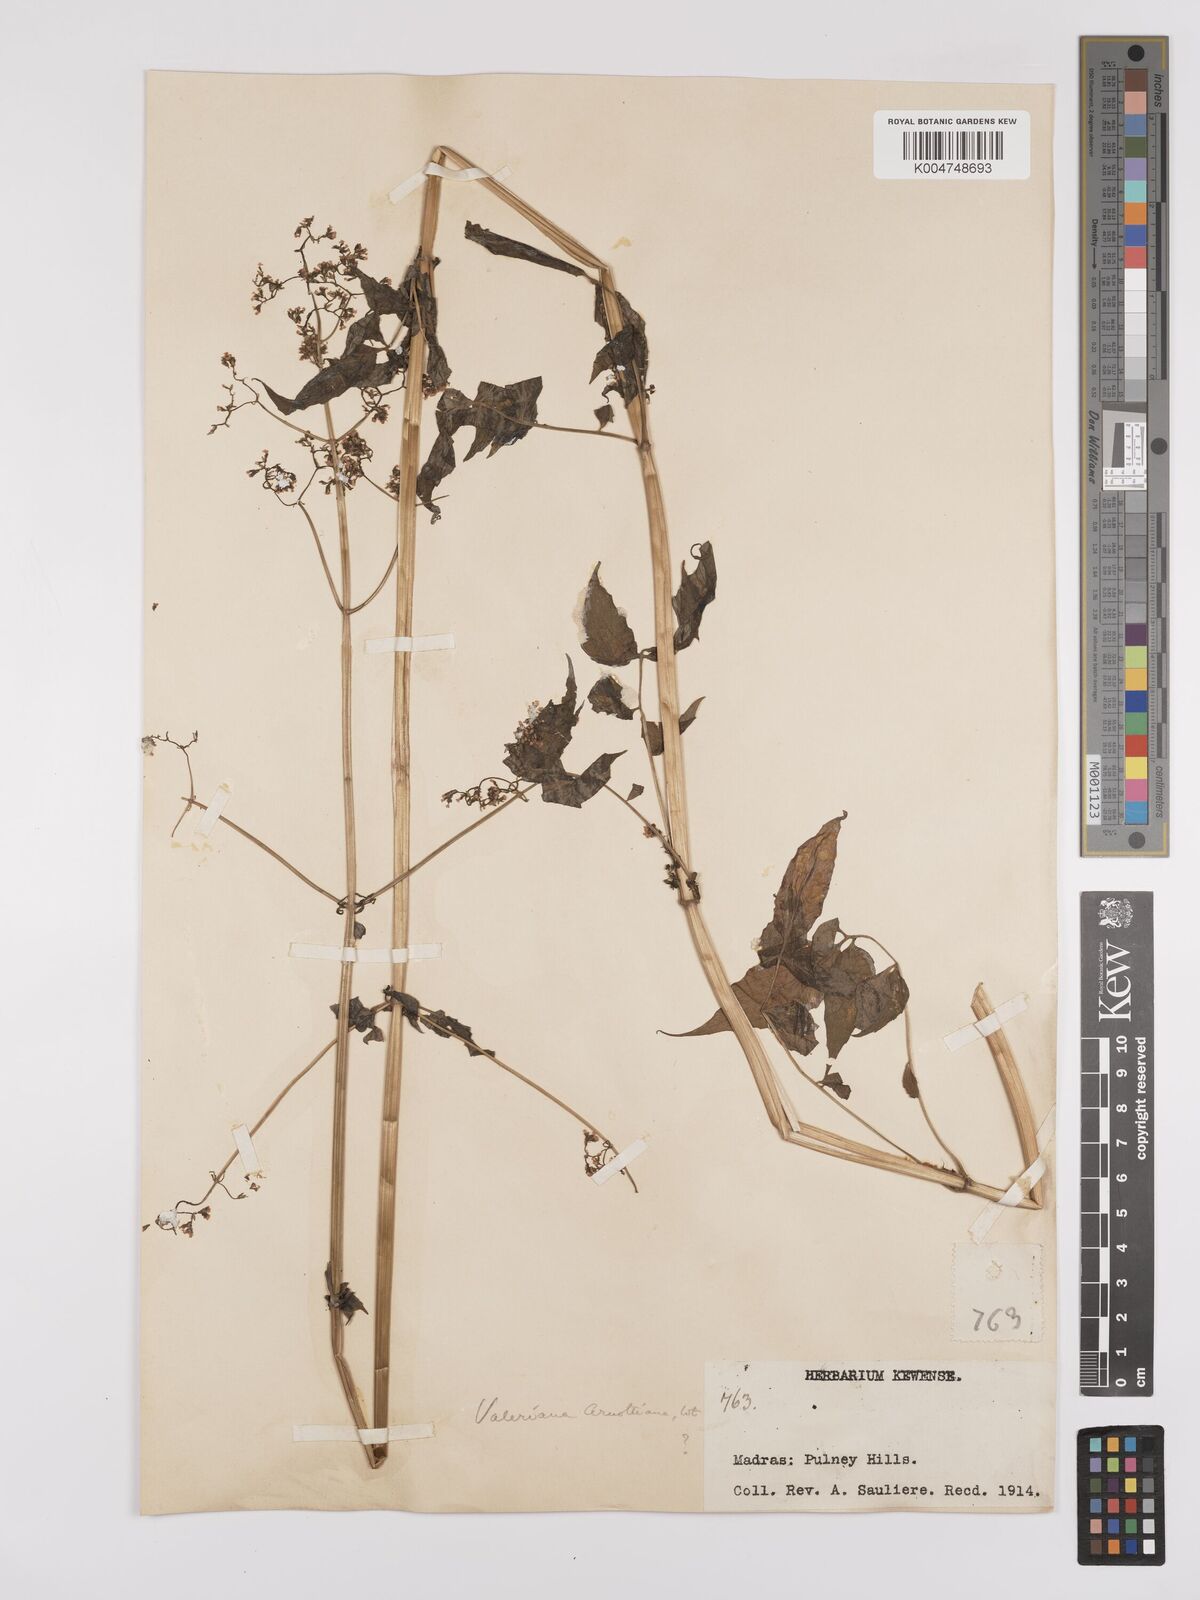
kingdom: Plantae
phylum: Tracheophyta
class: Magnoliopsida
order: Dipsacales
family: Caprifoliaceae
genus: Valeriana
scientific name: Valeriana
